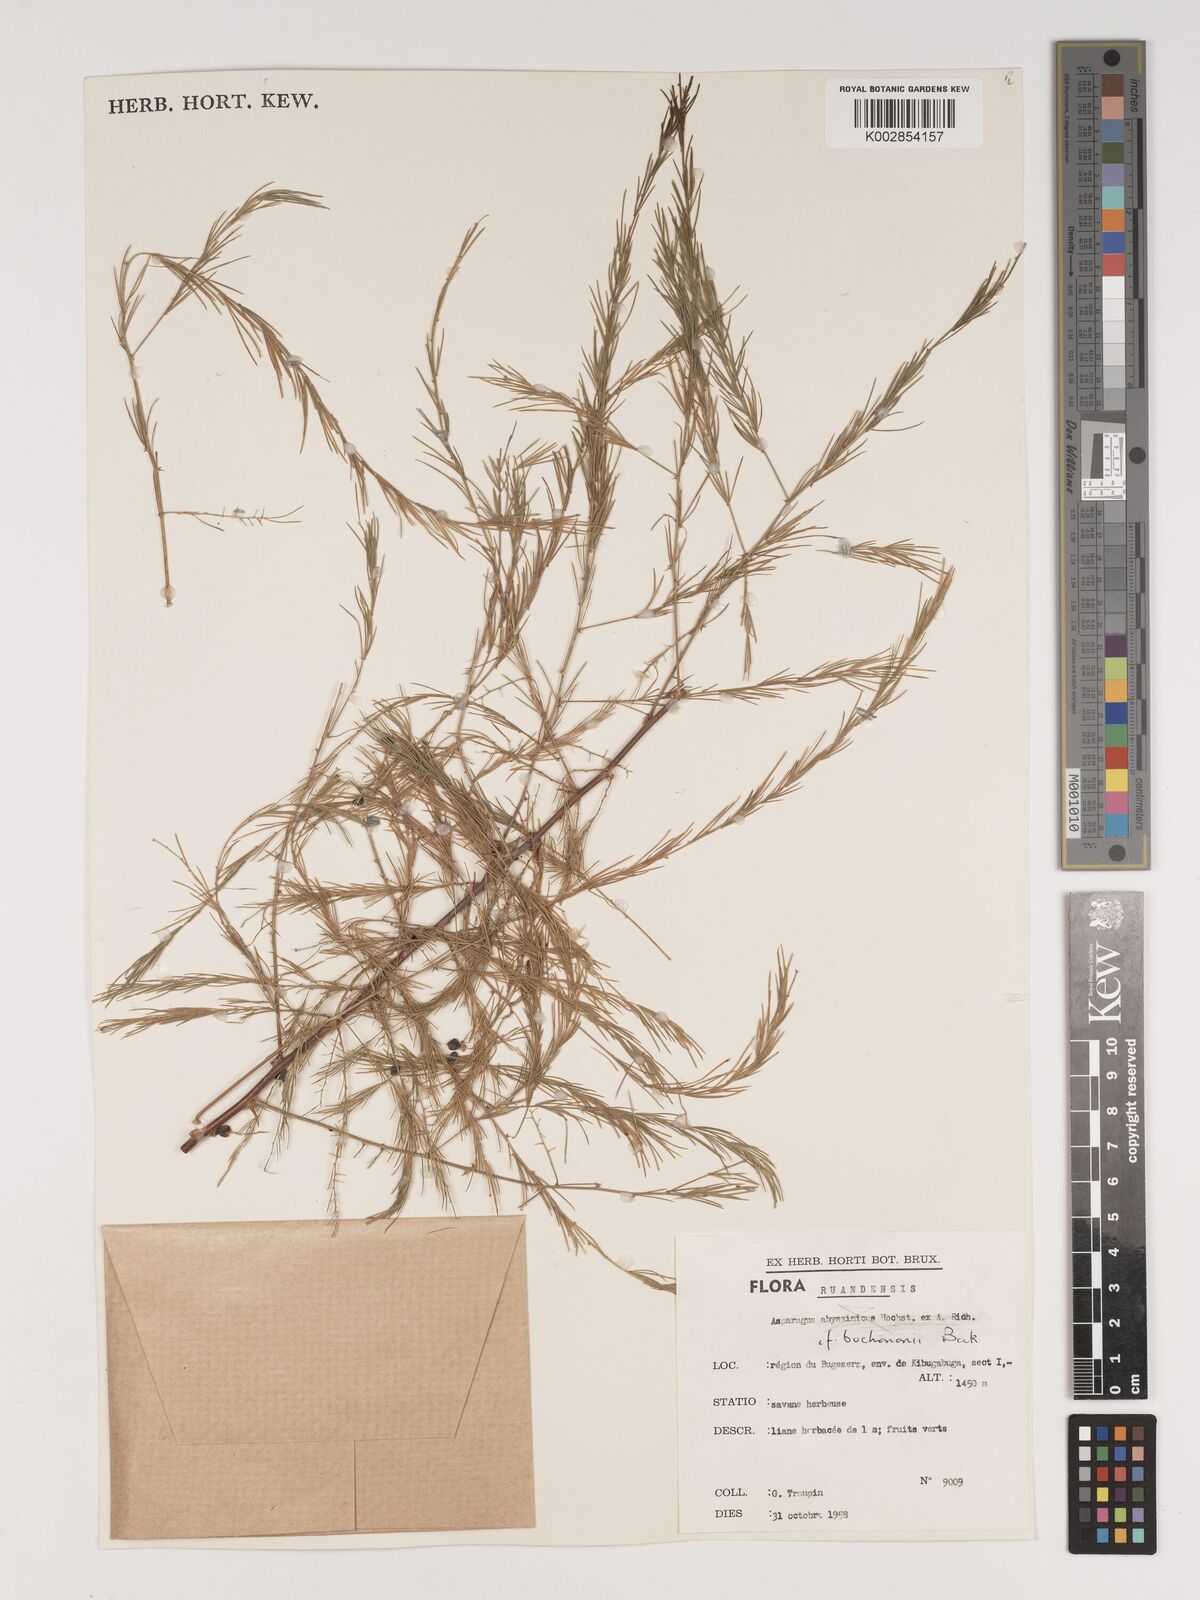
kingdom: Plantae
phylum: Tracheophyta
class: Liliopsida
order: Asparagales
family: Asparagaceae
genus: Asparagus
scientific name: Asparagus buchananii
